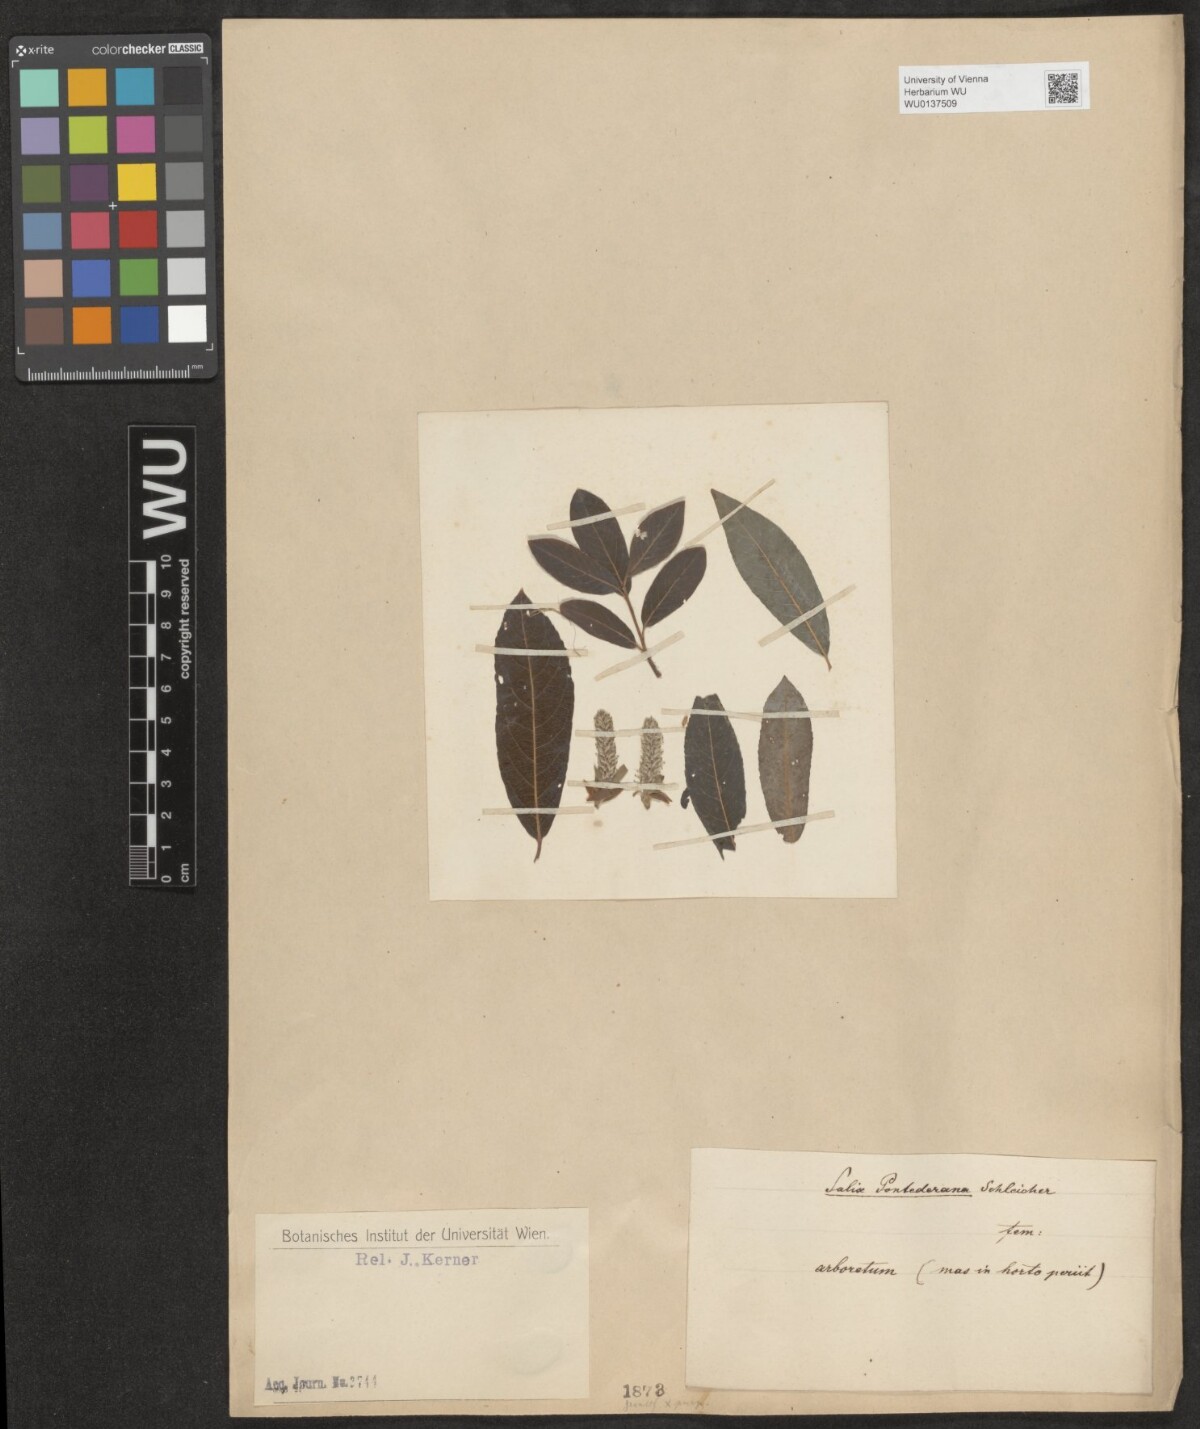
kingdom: Plantae
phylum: Tracheophyta
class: Magnoliopsida
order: Malpighiales
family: Salicaceae
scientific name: Salicaceae
